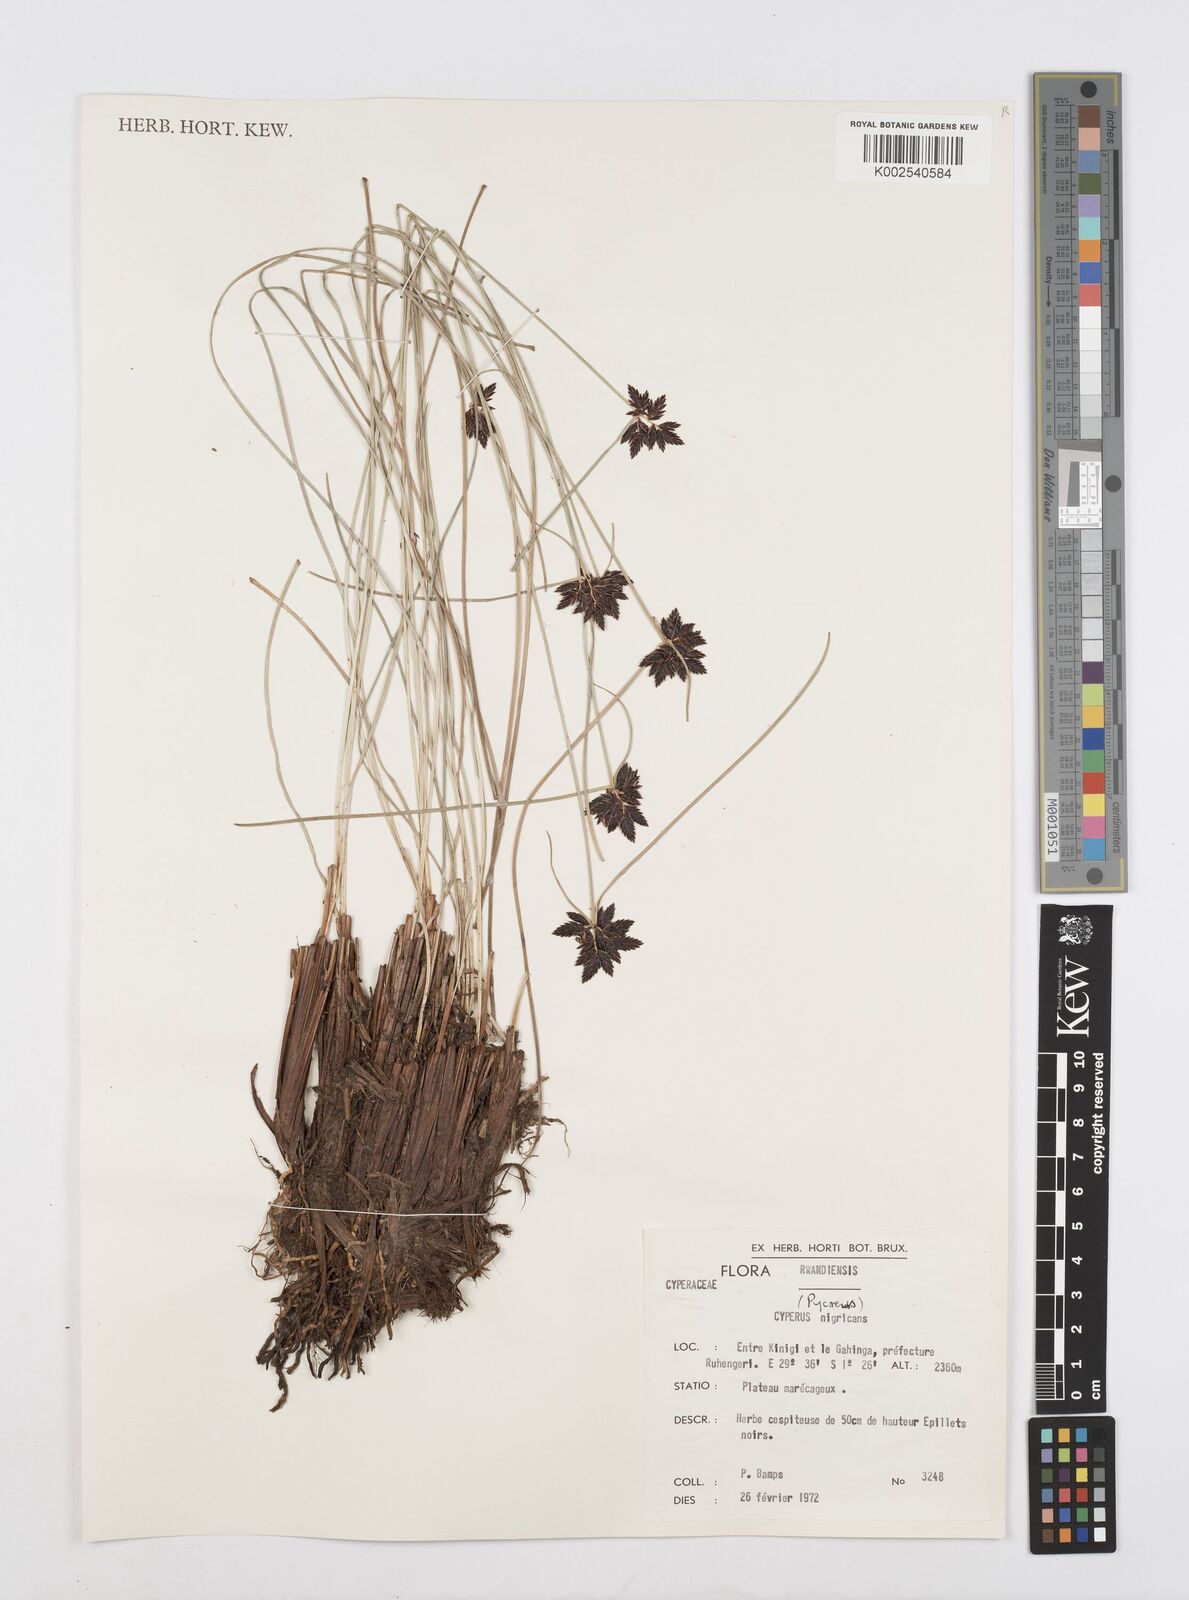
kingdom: Plantae
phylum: Tracheophyta
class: Liliopsida
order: Poales
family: Cyperaceae
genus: Cyperus
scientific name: Cyperus nigricans
